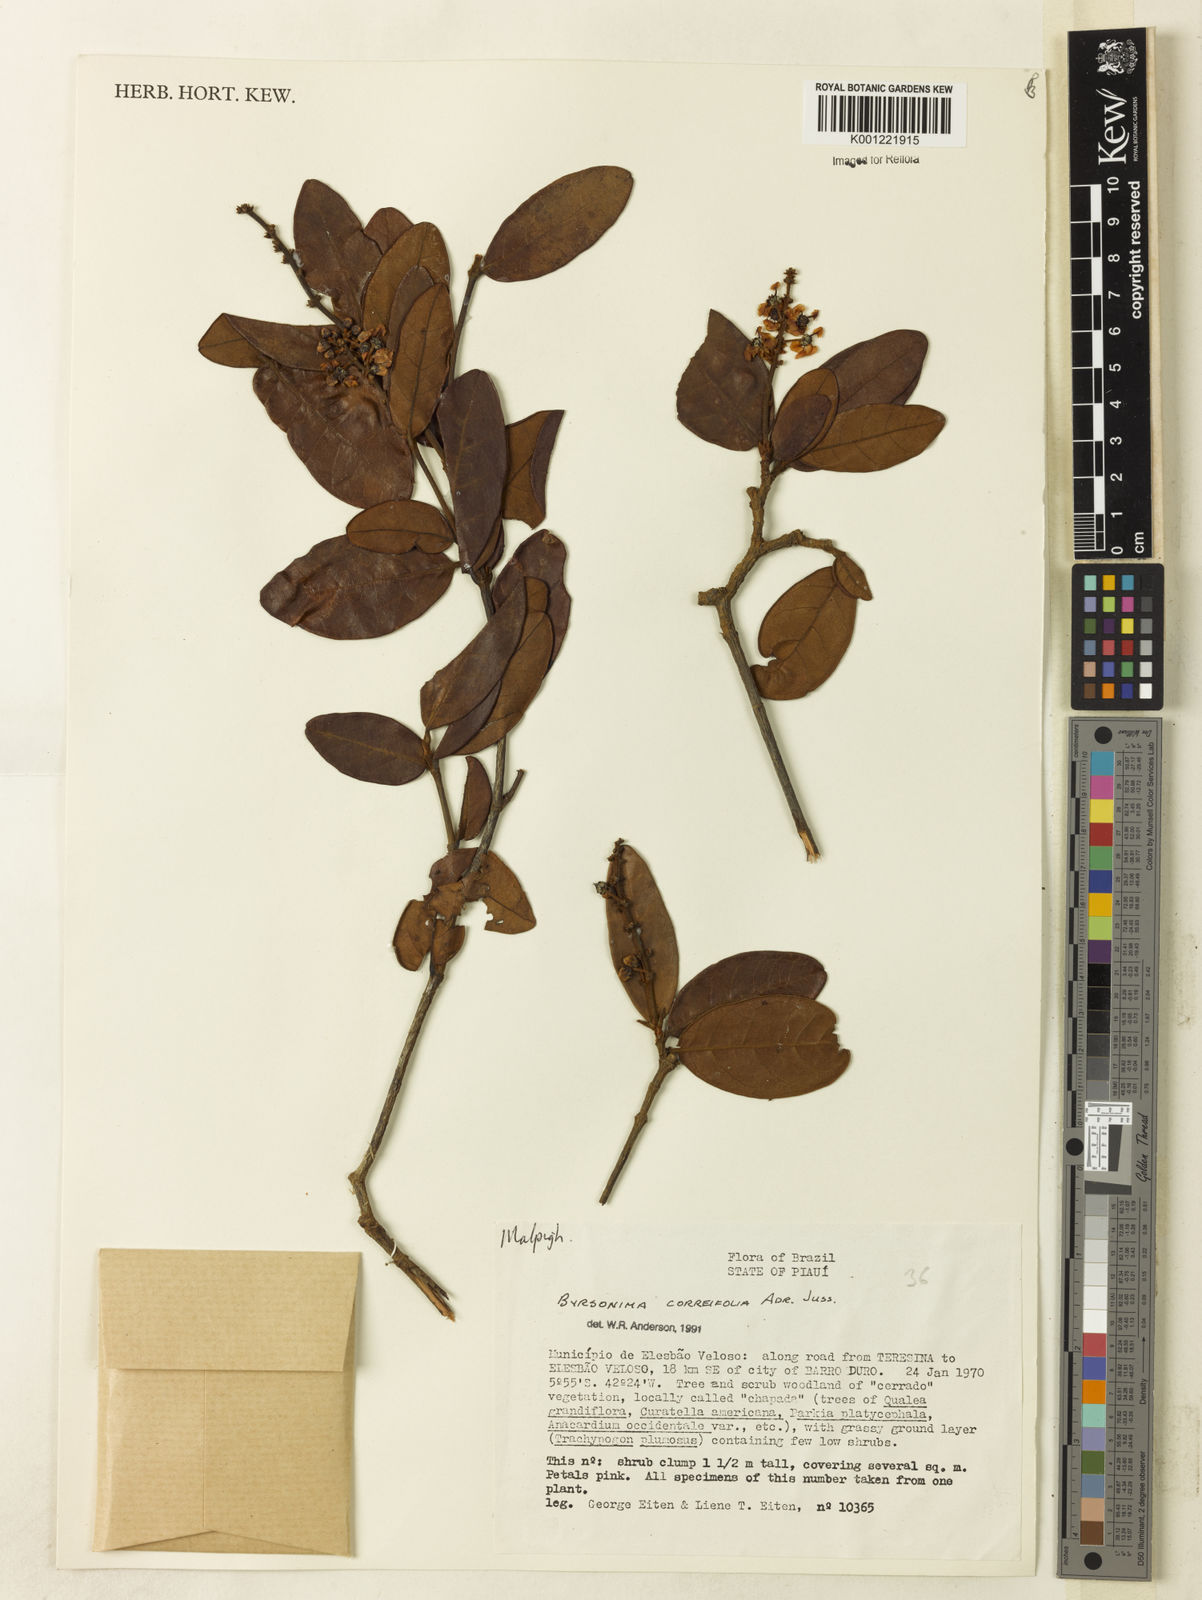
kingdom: Plantae
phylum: Tracheophyta
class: Magnoliopsida
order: Malpighiales
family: Malpighiaceae
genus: Byrsonima
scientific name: Byrsonima correifolia
